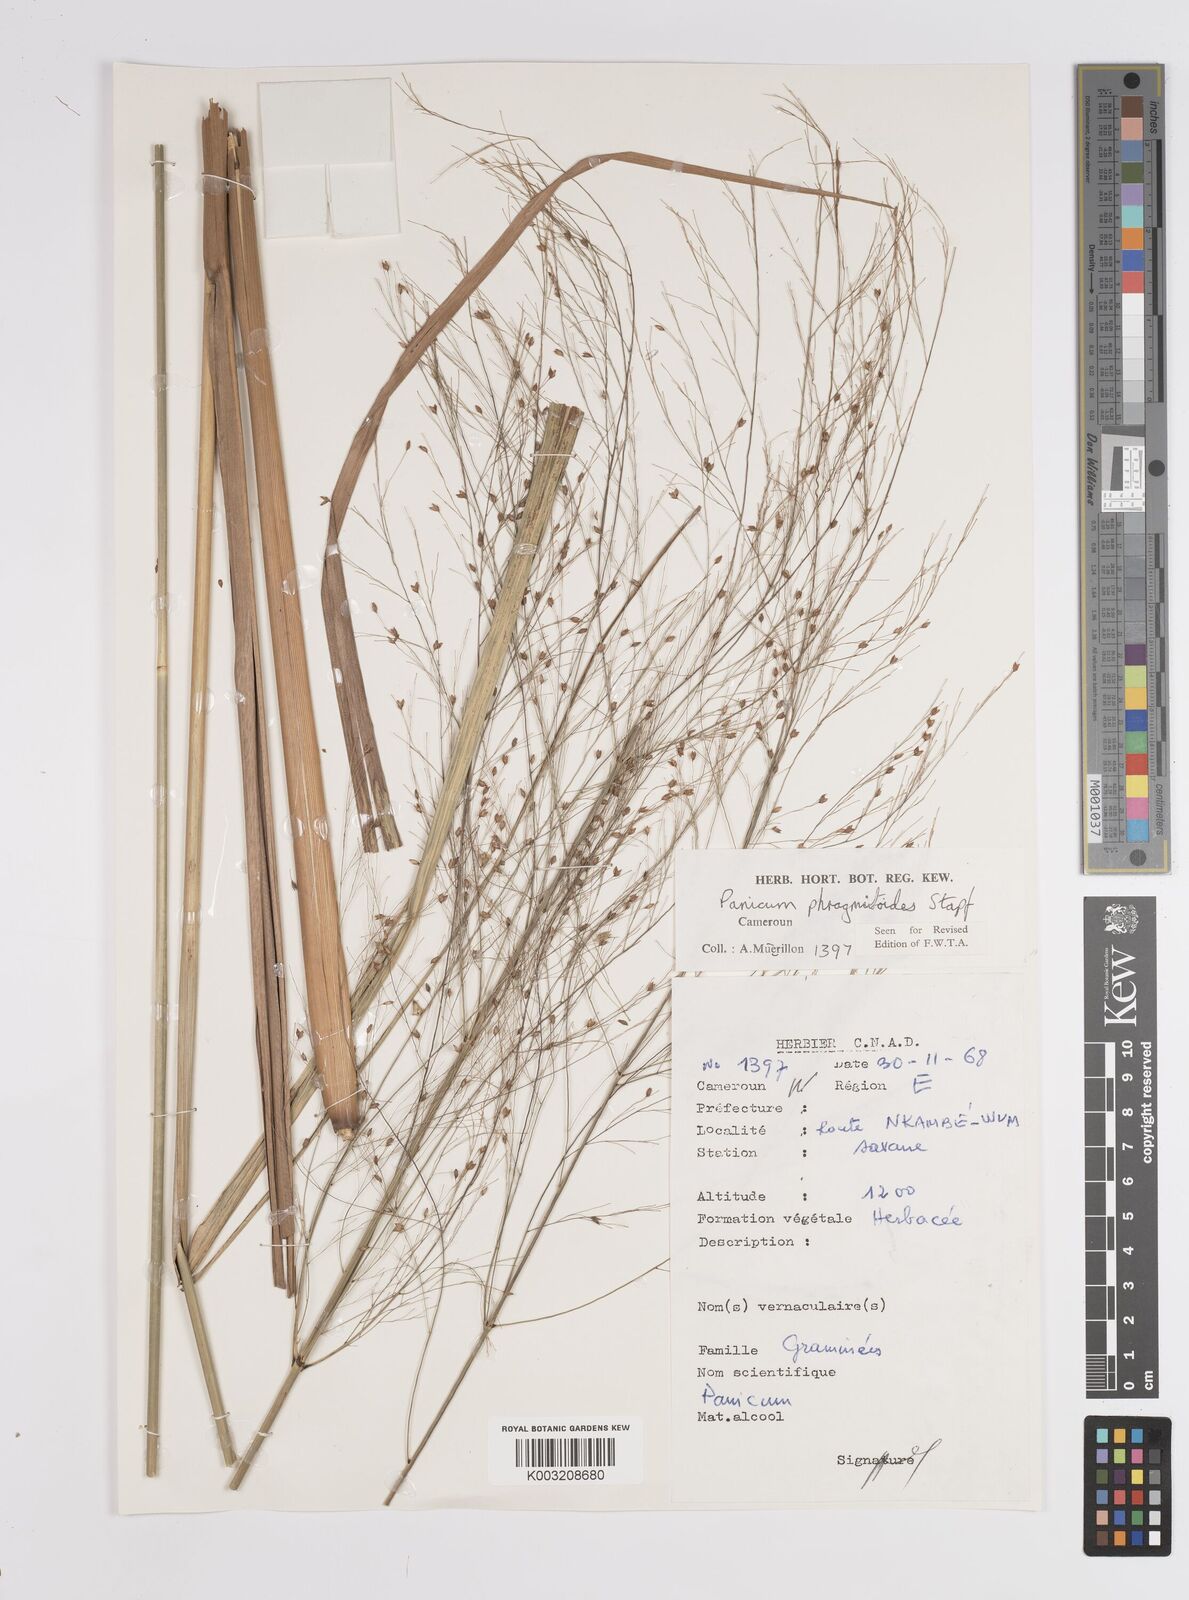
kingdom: Plantae
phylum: Tracheophyta
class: Liliopsida
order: Poales
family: Poaceae
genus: Panicum
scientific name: Panicum phragmitoides
